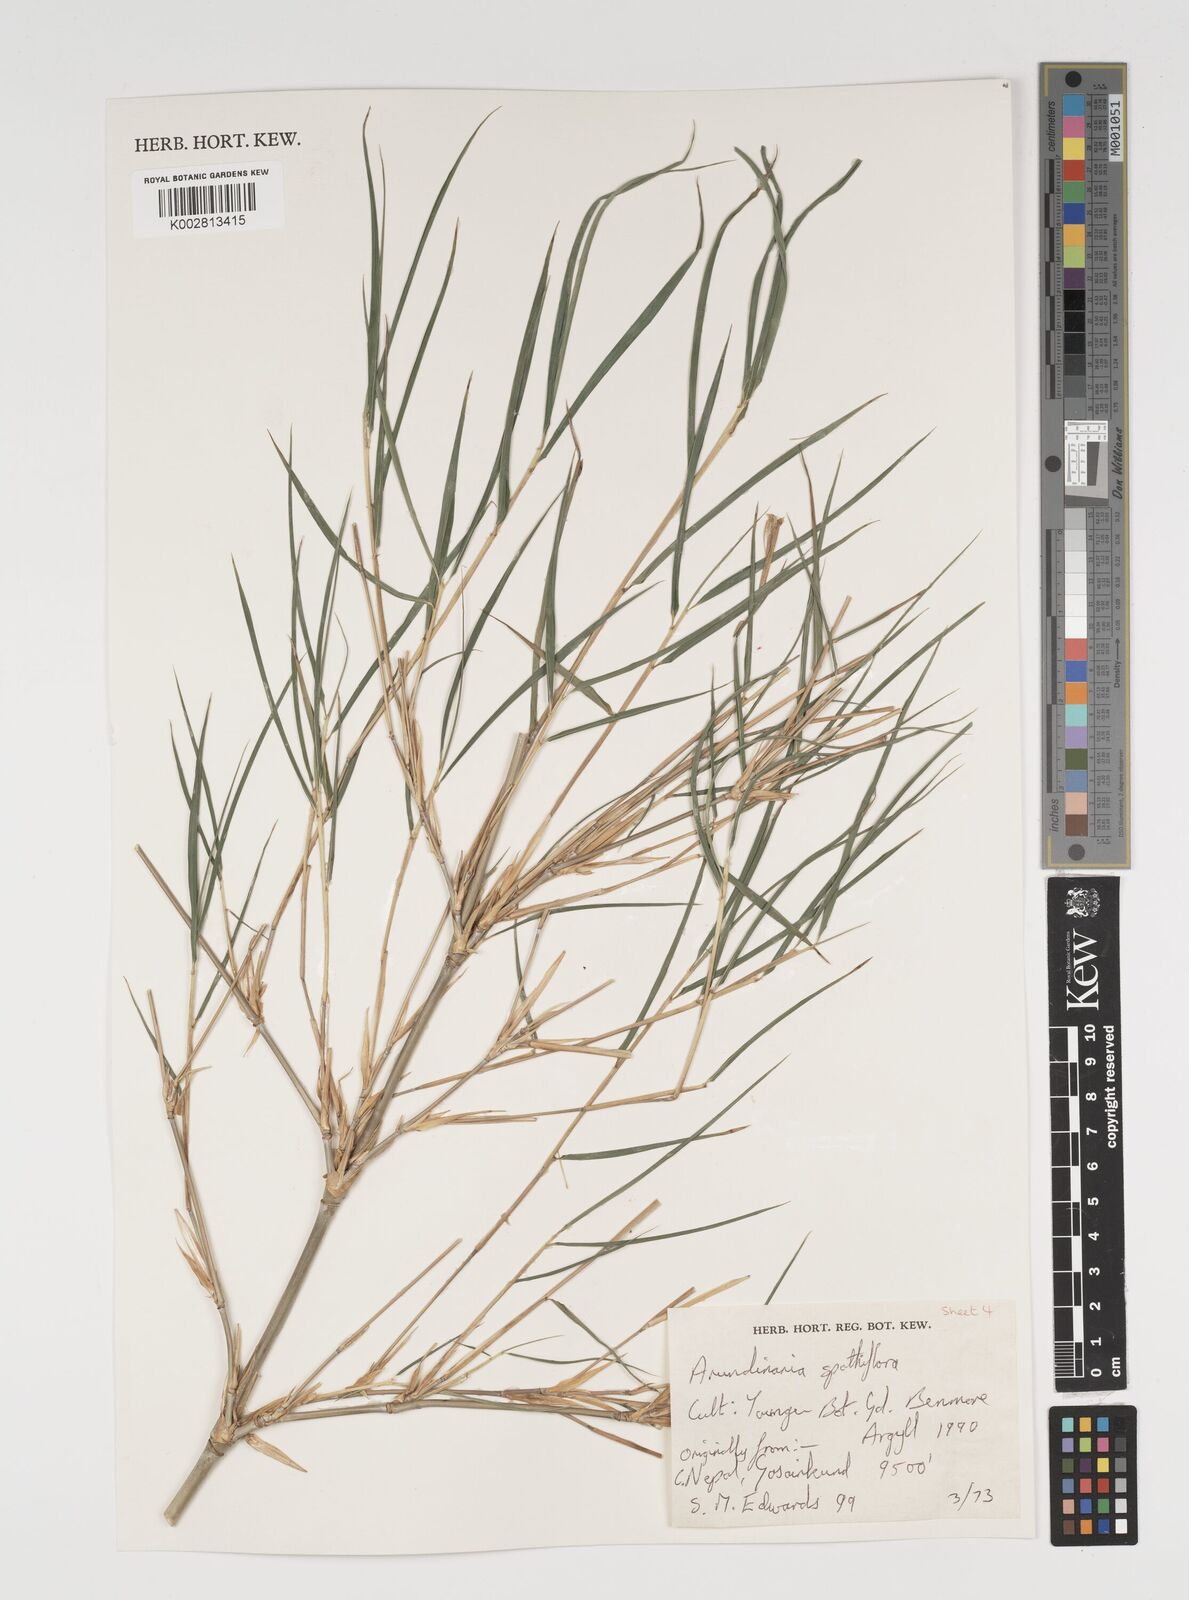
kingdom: Plantae
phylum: Tracheophyta
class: Liliopsida
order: Poales
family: Poaceae
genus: Thamnocalamus
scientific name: Thamnocalamus crassinodus
